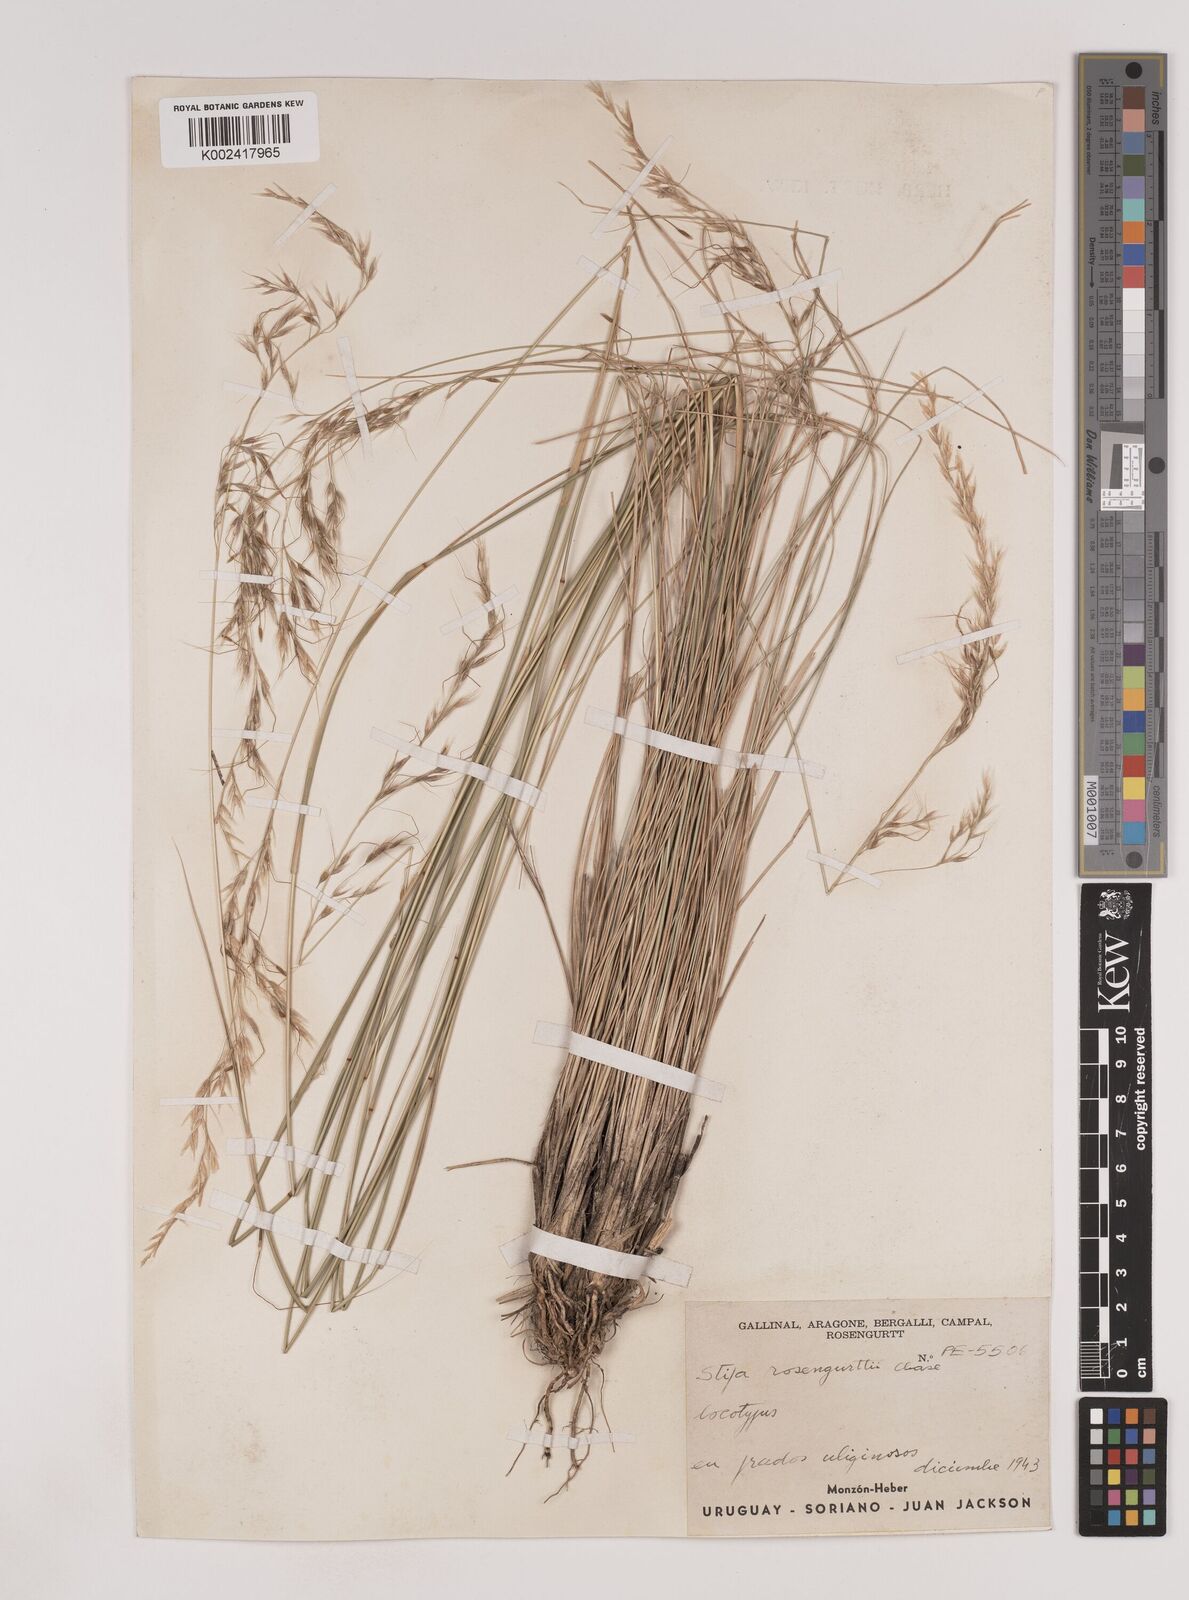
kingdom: Plantae
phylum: Tracheophyta
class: Liliopsida
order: Poales
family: Poaceae
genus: Nassella
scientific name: Nassella rosengurttii
